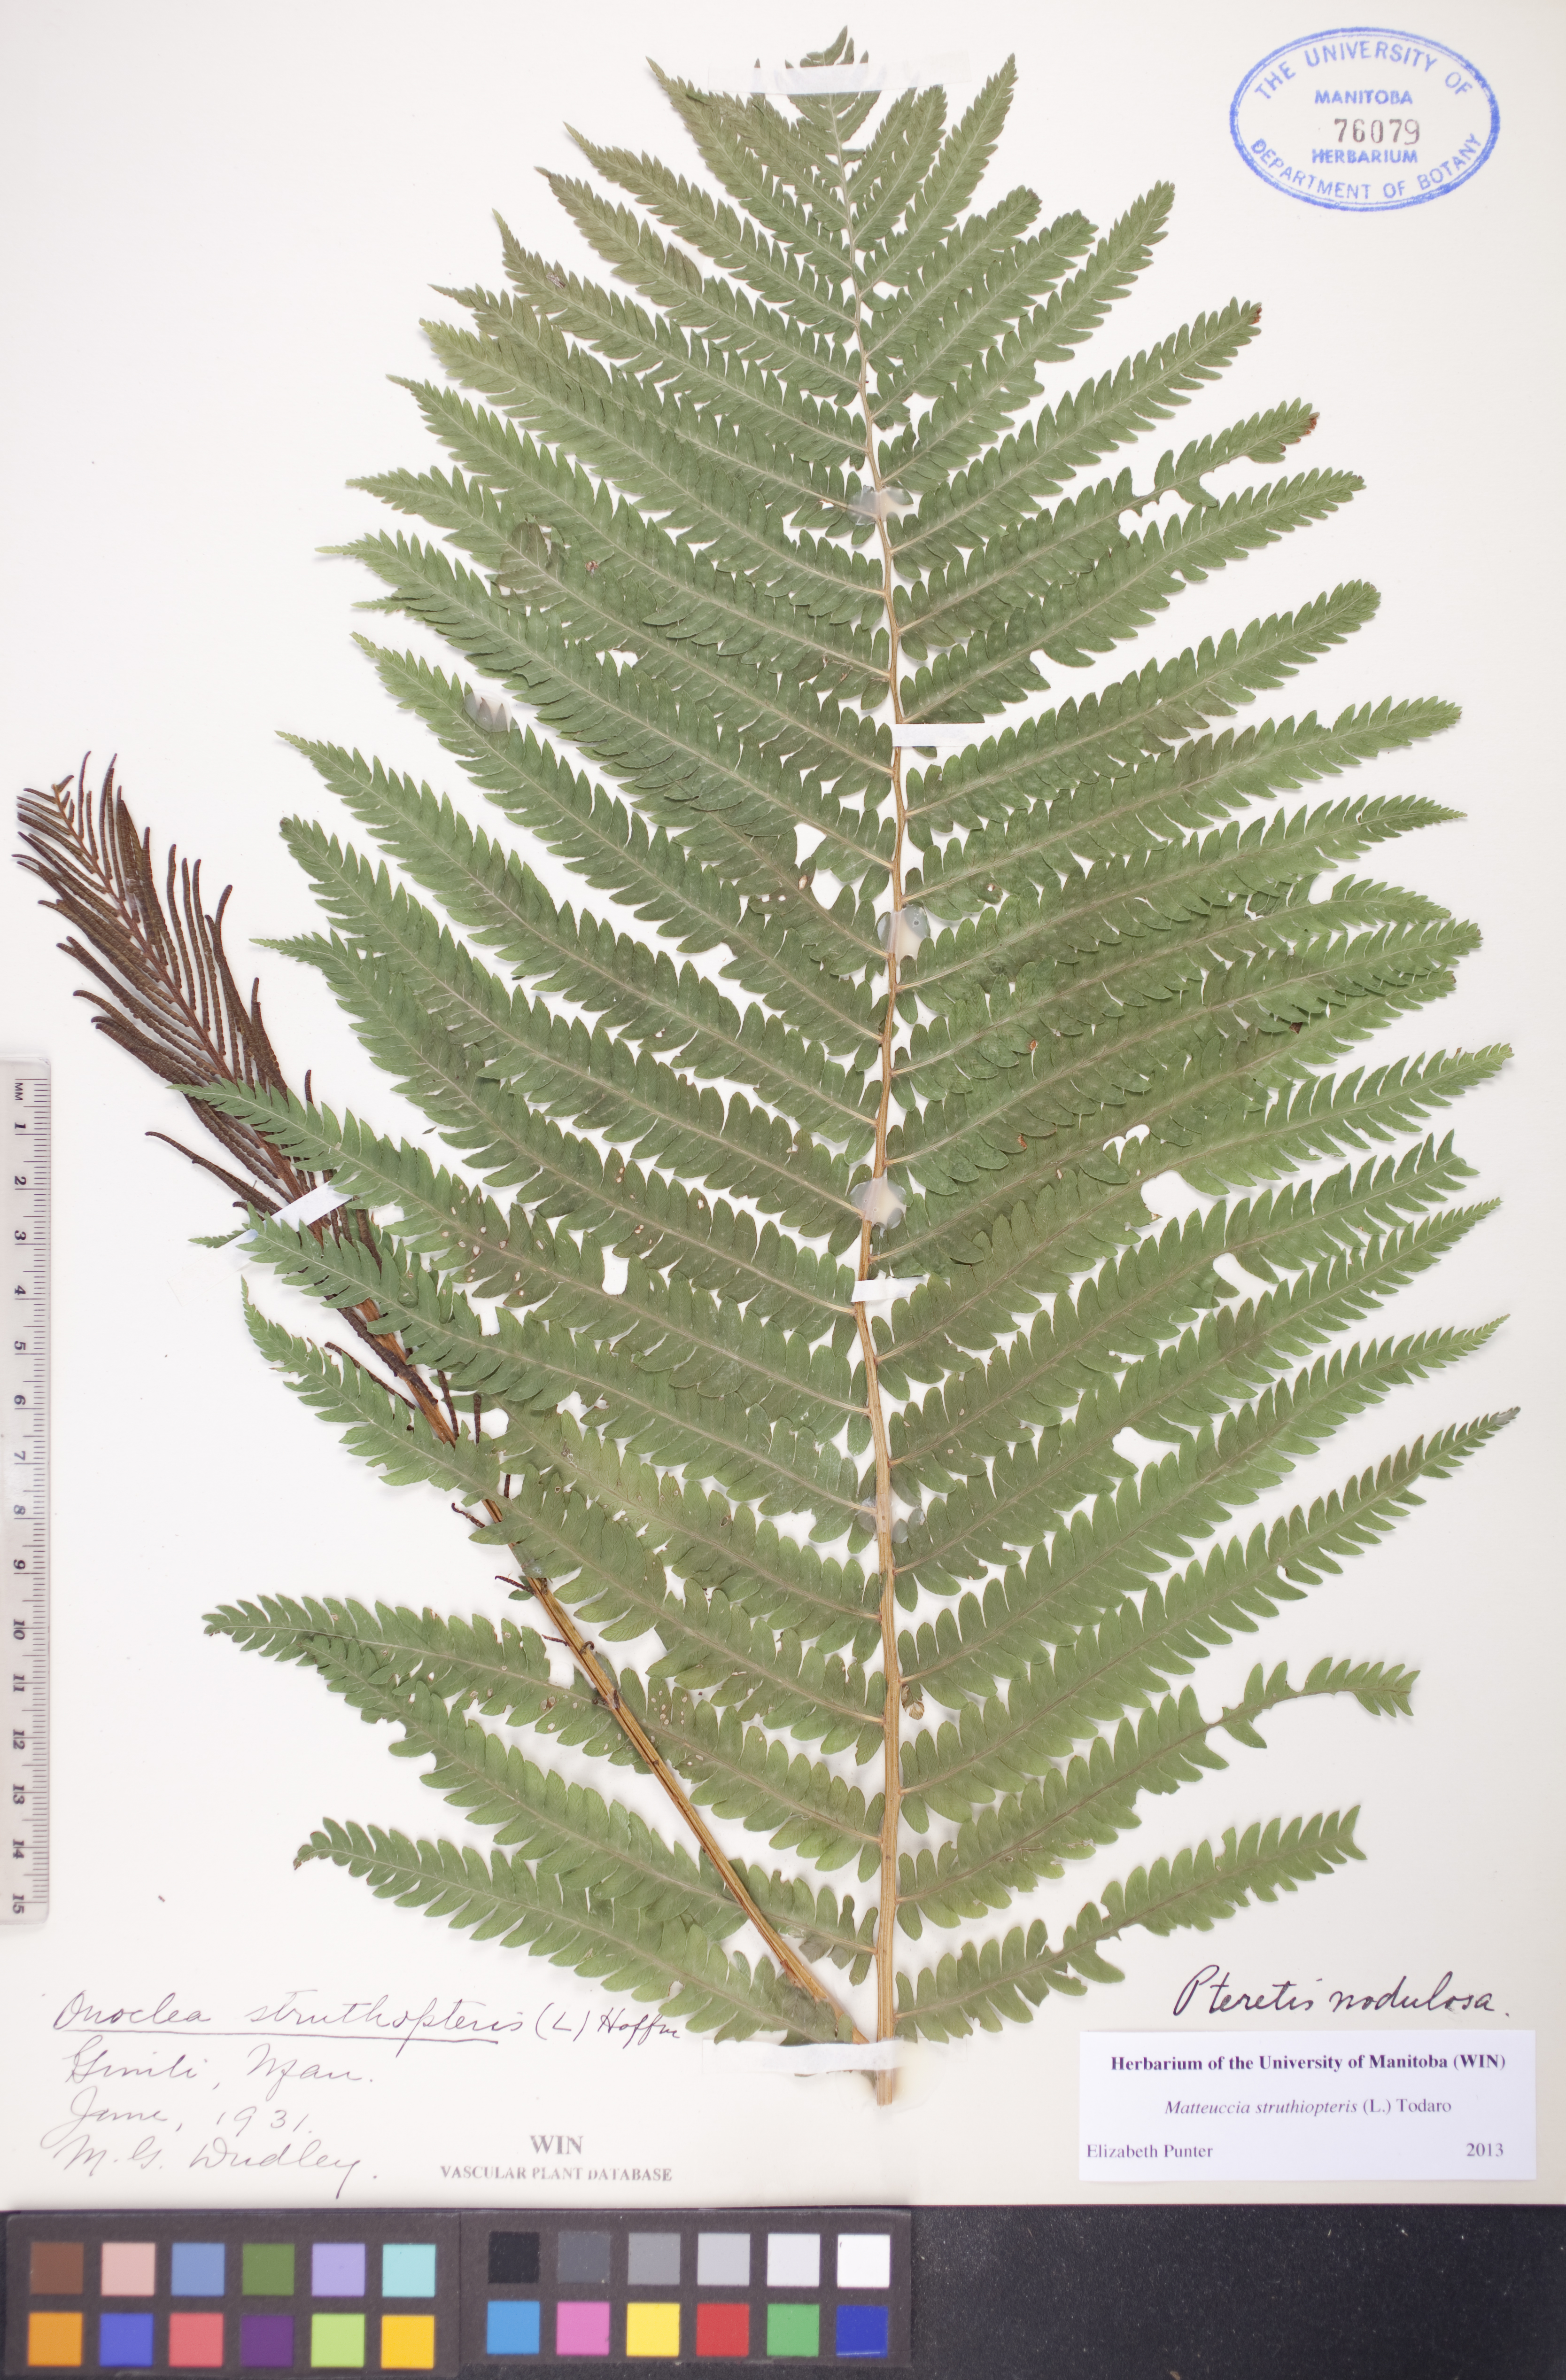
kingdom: Plantae
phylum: Tracheophyta
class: Polypodiopsida
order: Polypodiales
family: Onocleaceae
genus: Matteuccia
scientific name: Matteuccia struthiopteris
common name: Ostrich fern
